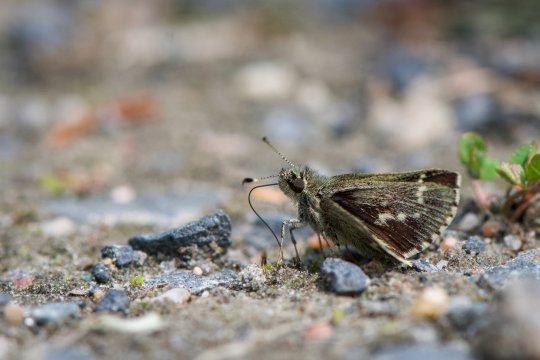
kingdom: Animalia
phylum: Arthropoda
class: Insecta
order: Lepidoptera
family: Hesperiidae
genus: Mastor
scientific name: Mastor hegon
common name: Pepper and Salt Skipper
